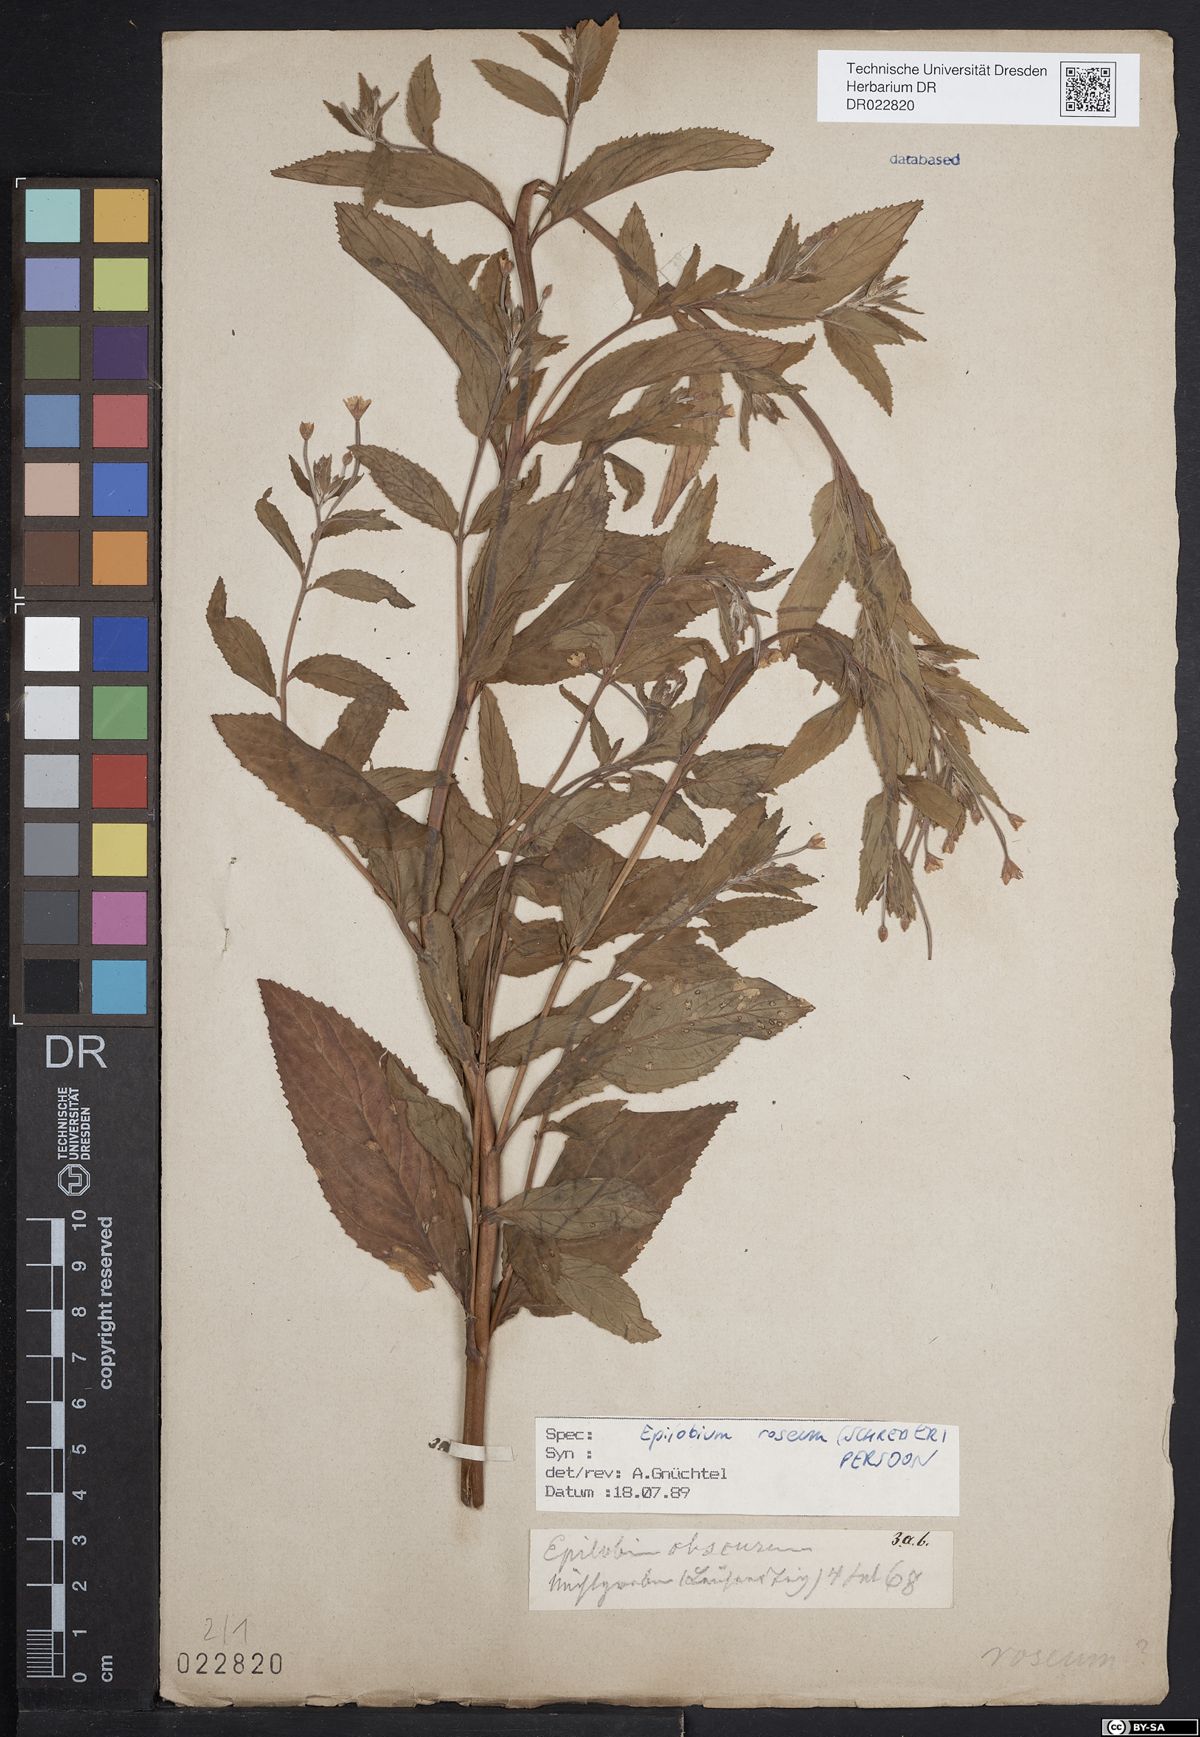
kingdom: Plantae
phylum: Tracheophyta
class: Magnoliopsida
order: Myrtales
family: Onagraceae
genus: Epilobium
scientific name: Epilobium roseum
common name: Pale willowherb
